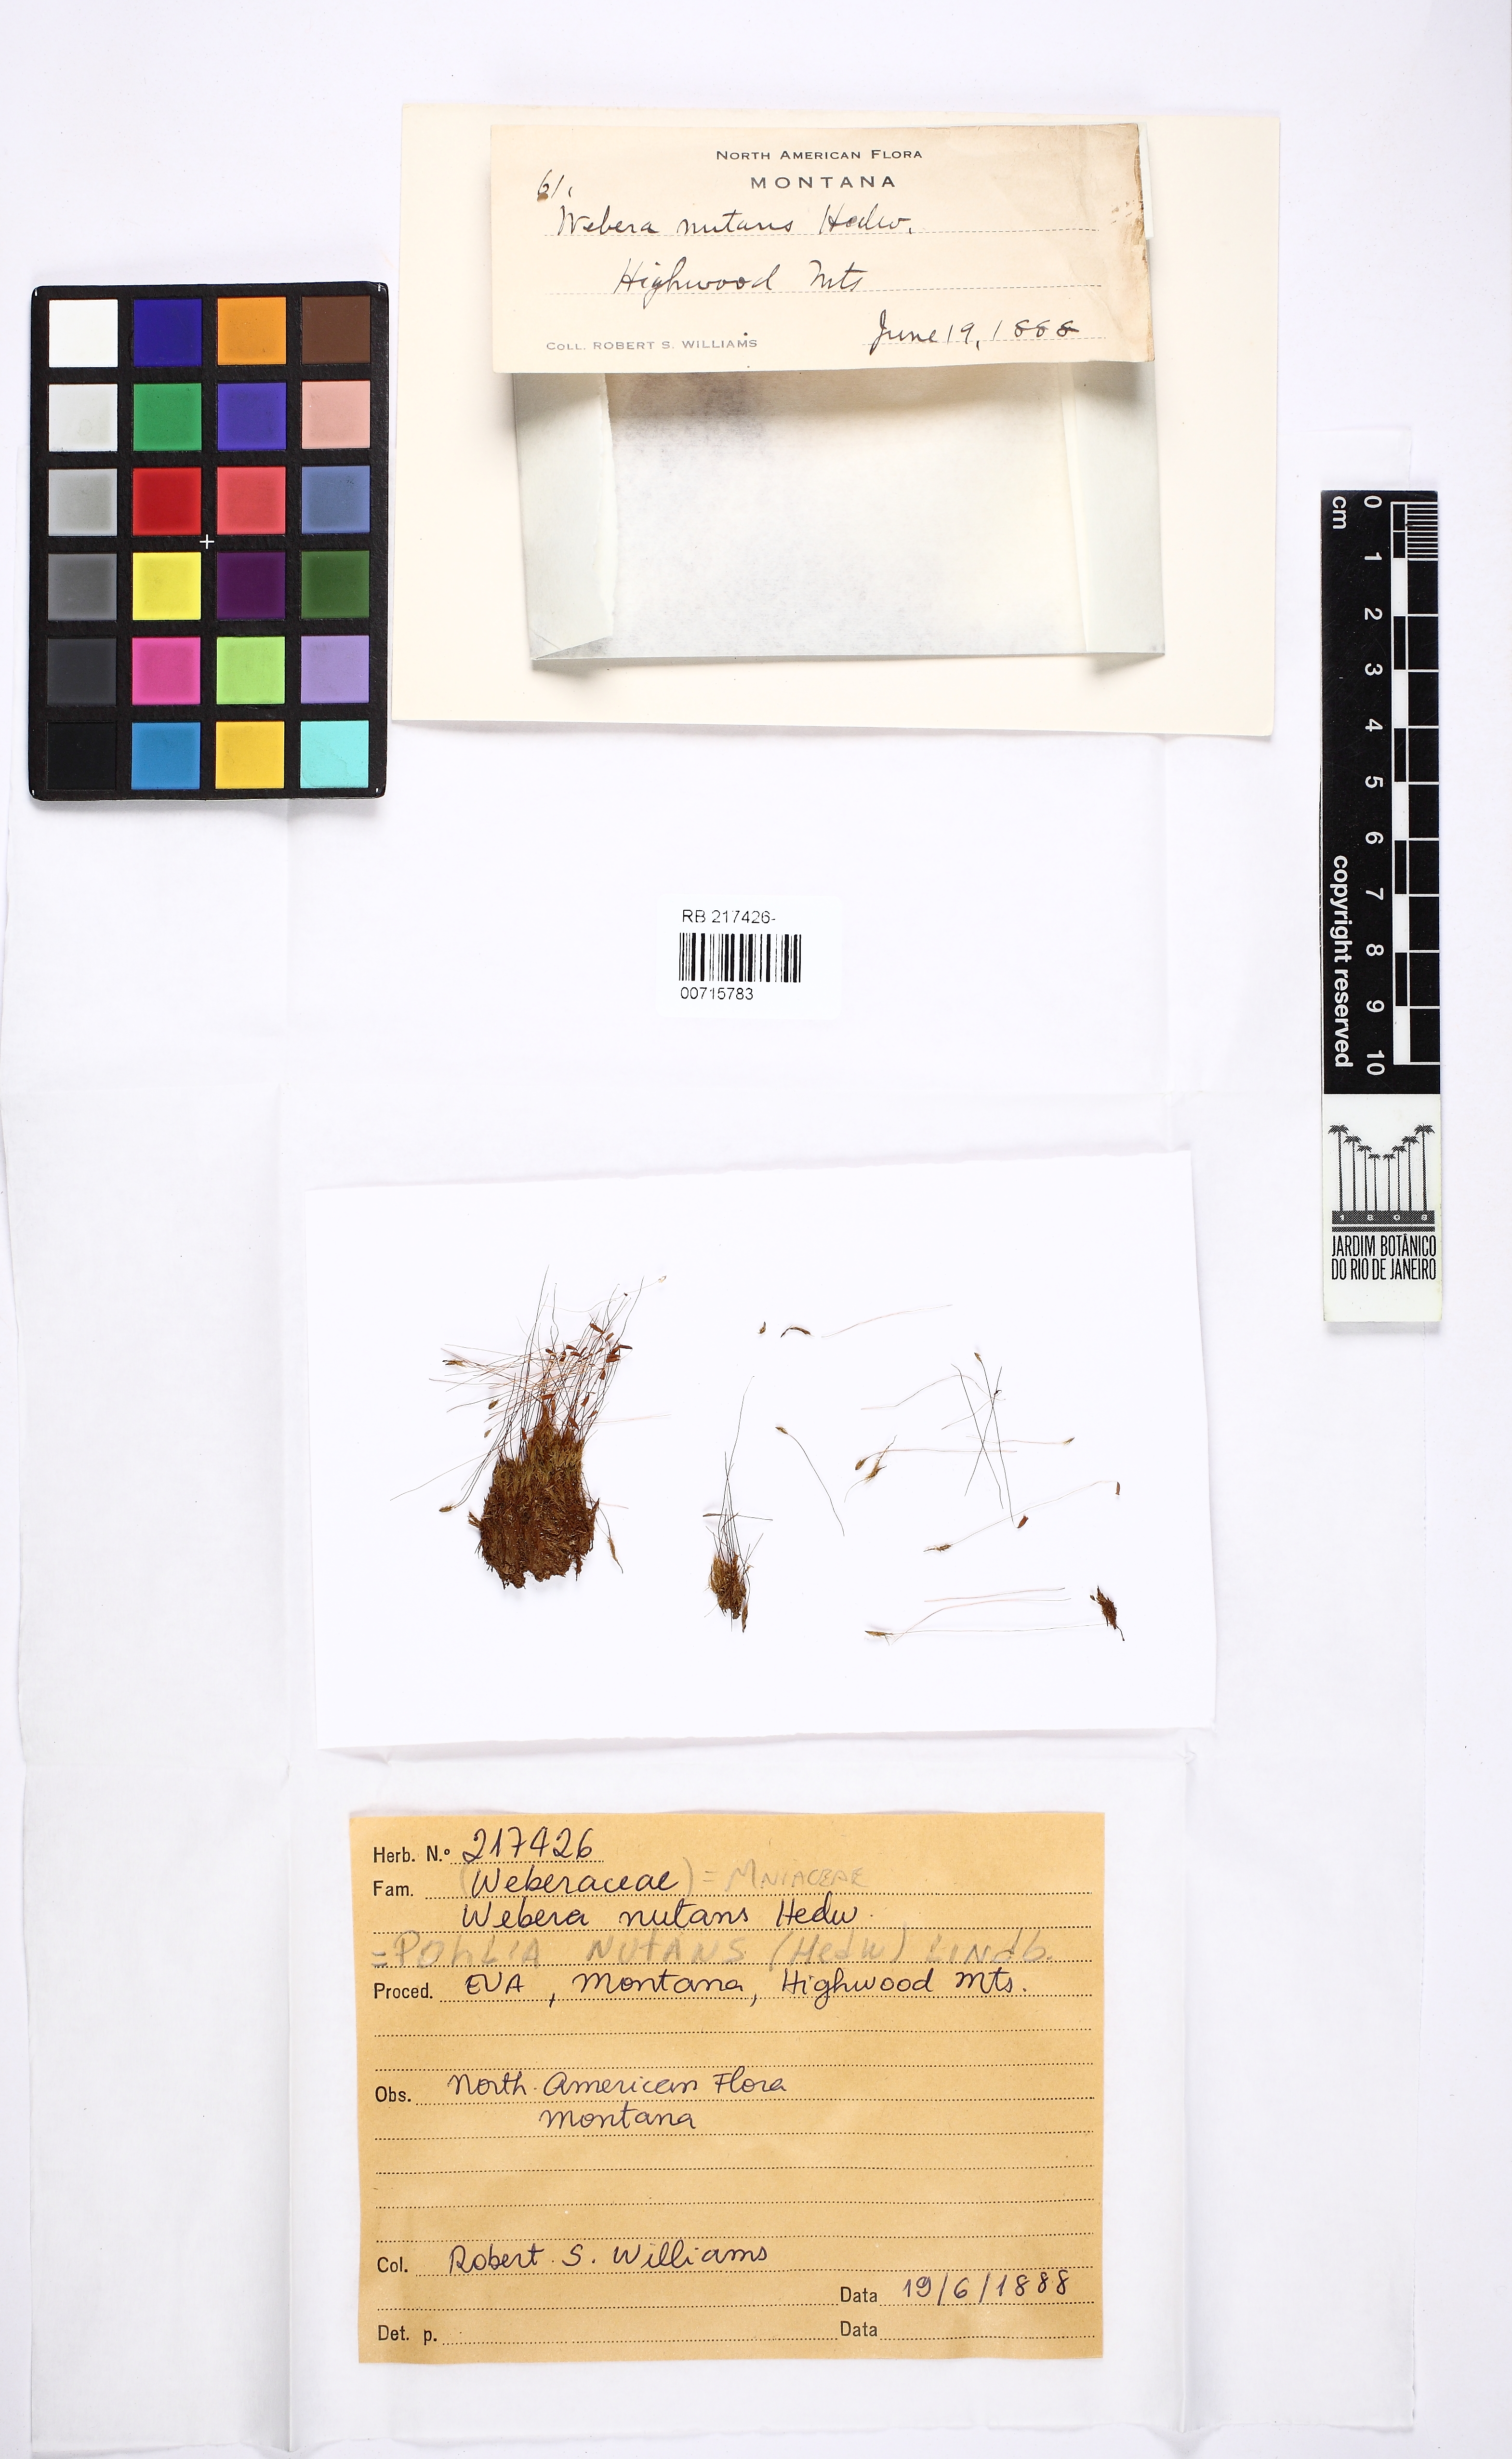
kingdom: Plantae
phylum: Bryophyta
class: Bryopsida
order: Bryales
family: Mniaceae
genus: Pohlia
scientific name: Pohlia nutans
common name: Nodding thread-moss
